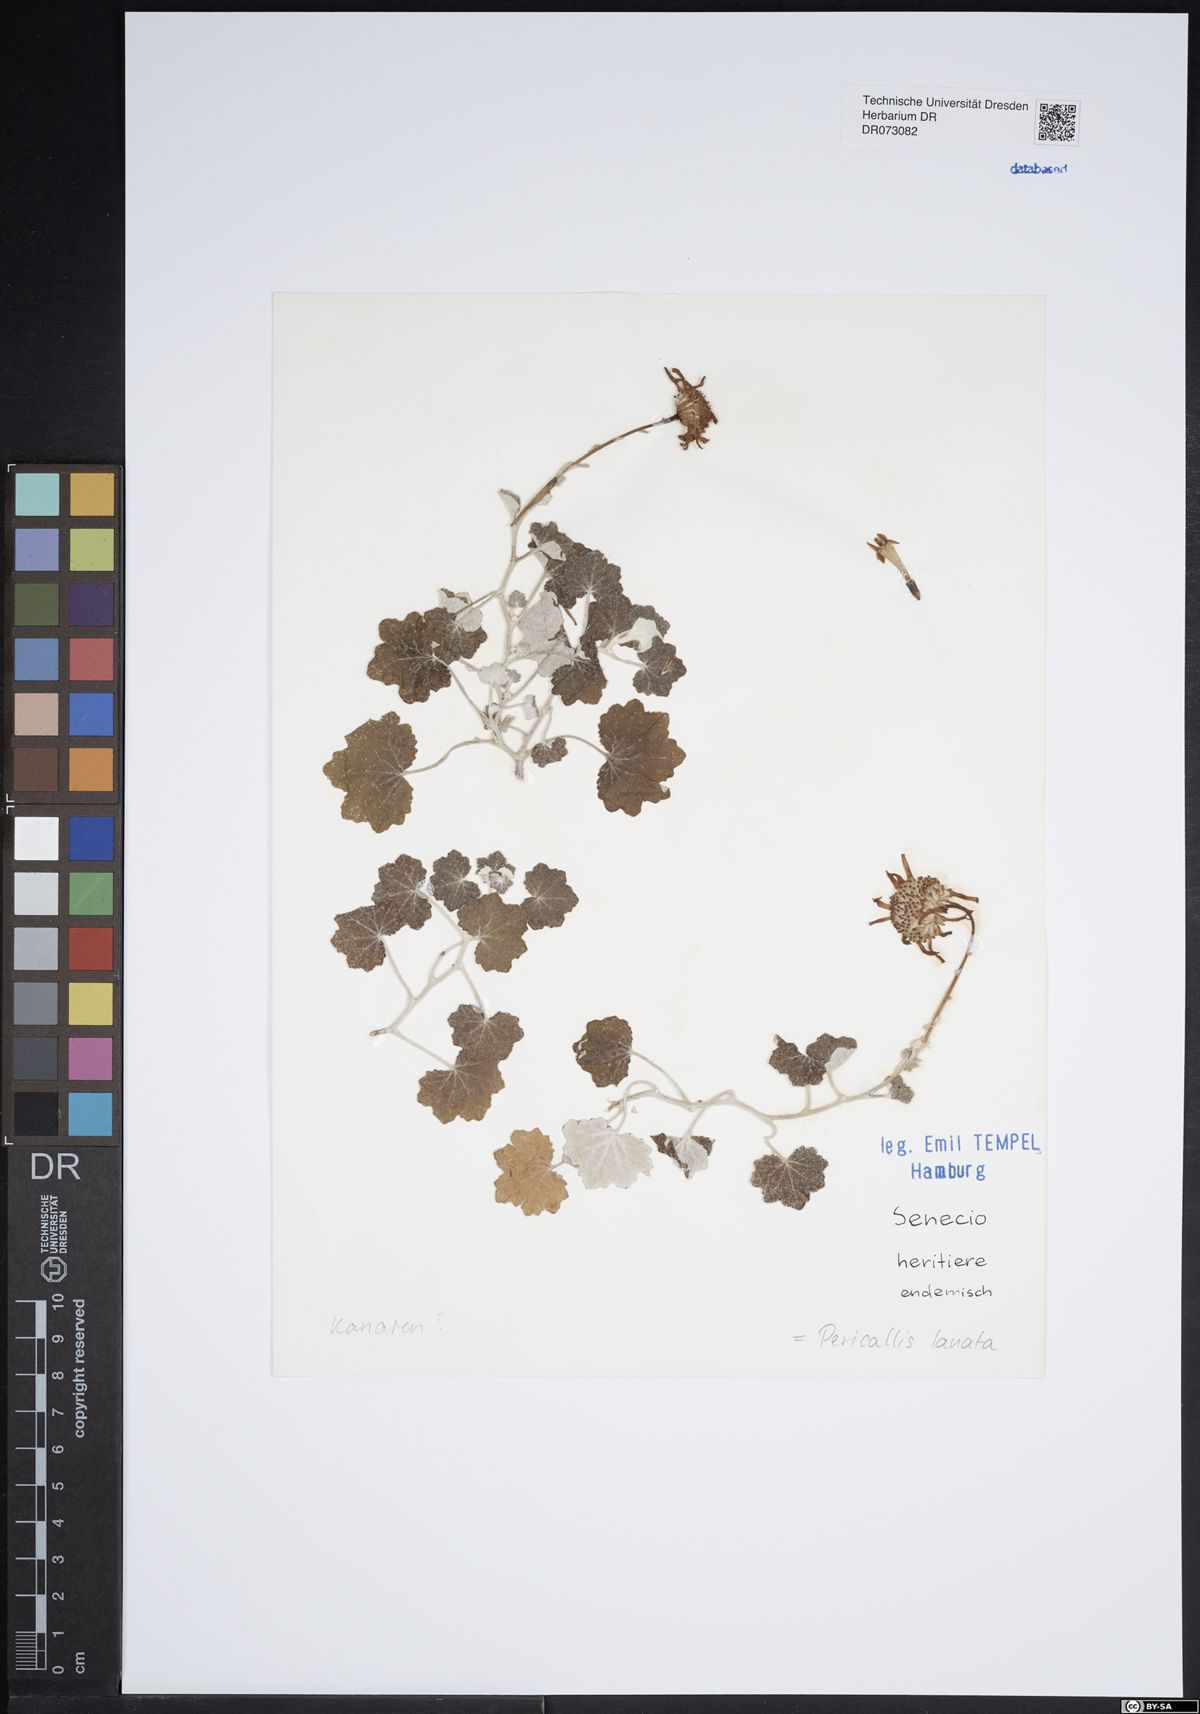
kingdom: Plantae
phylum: Tracheophyta
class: Magnoliopsida
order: Asterales
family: Asteraceae
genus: Scolymus
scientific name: Scolymus hispanicus
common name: Golden thistle
